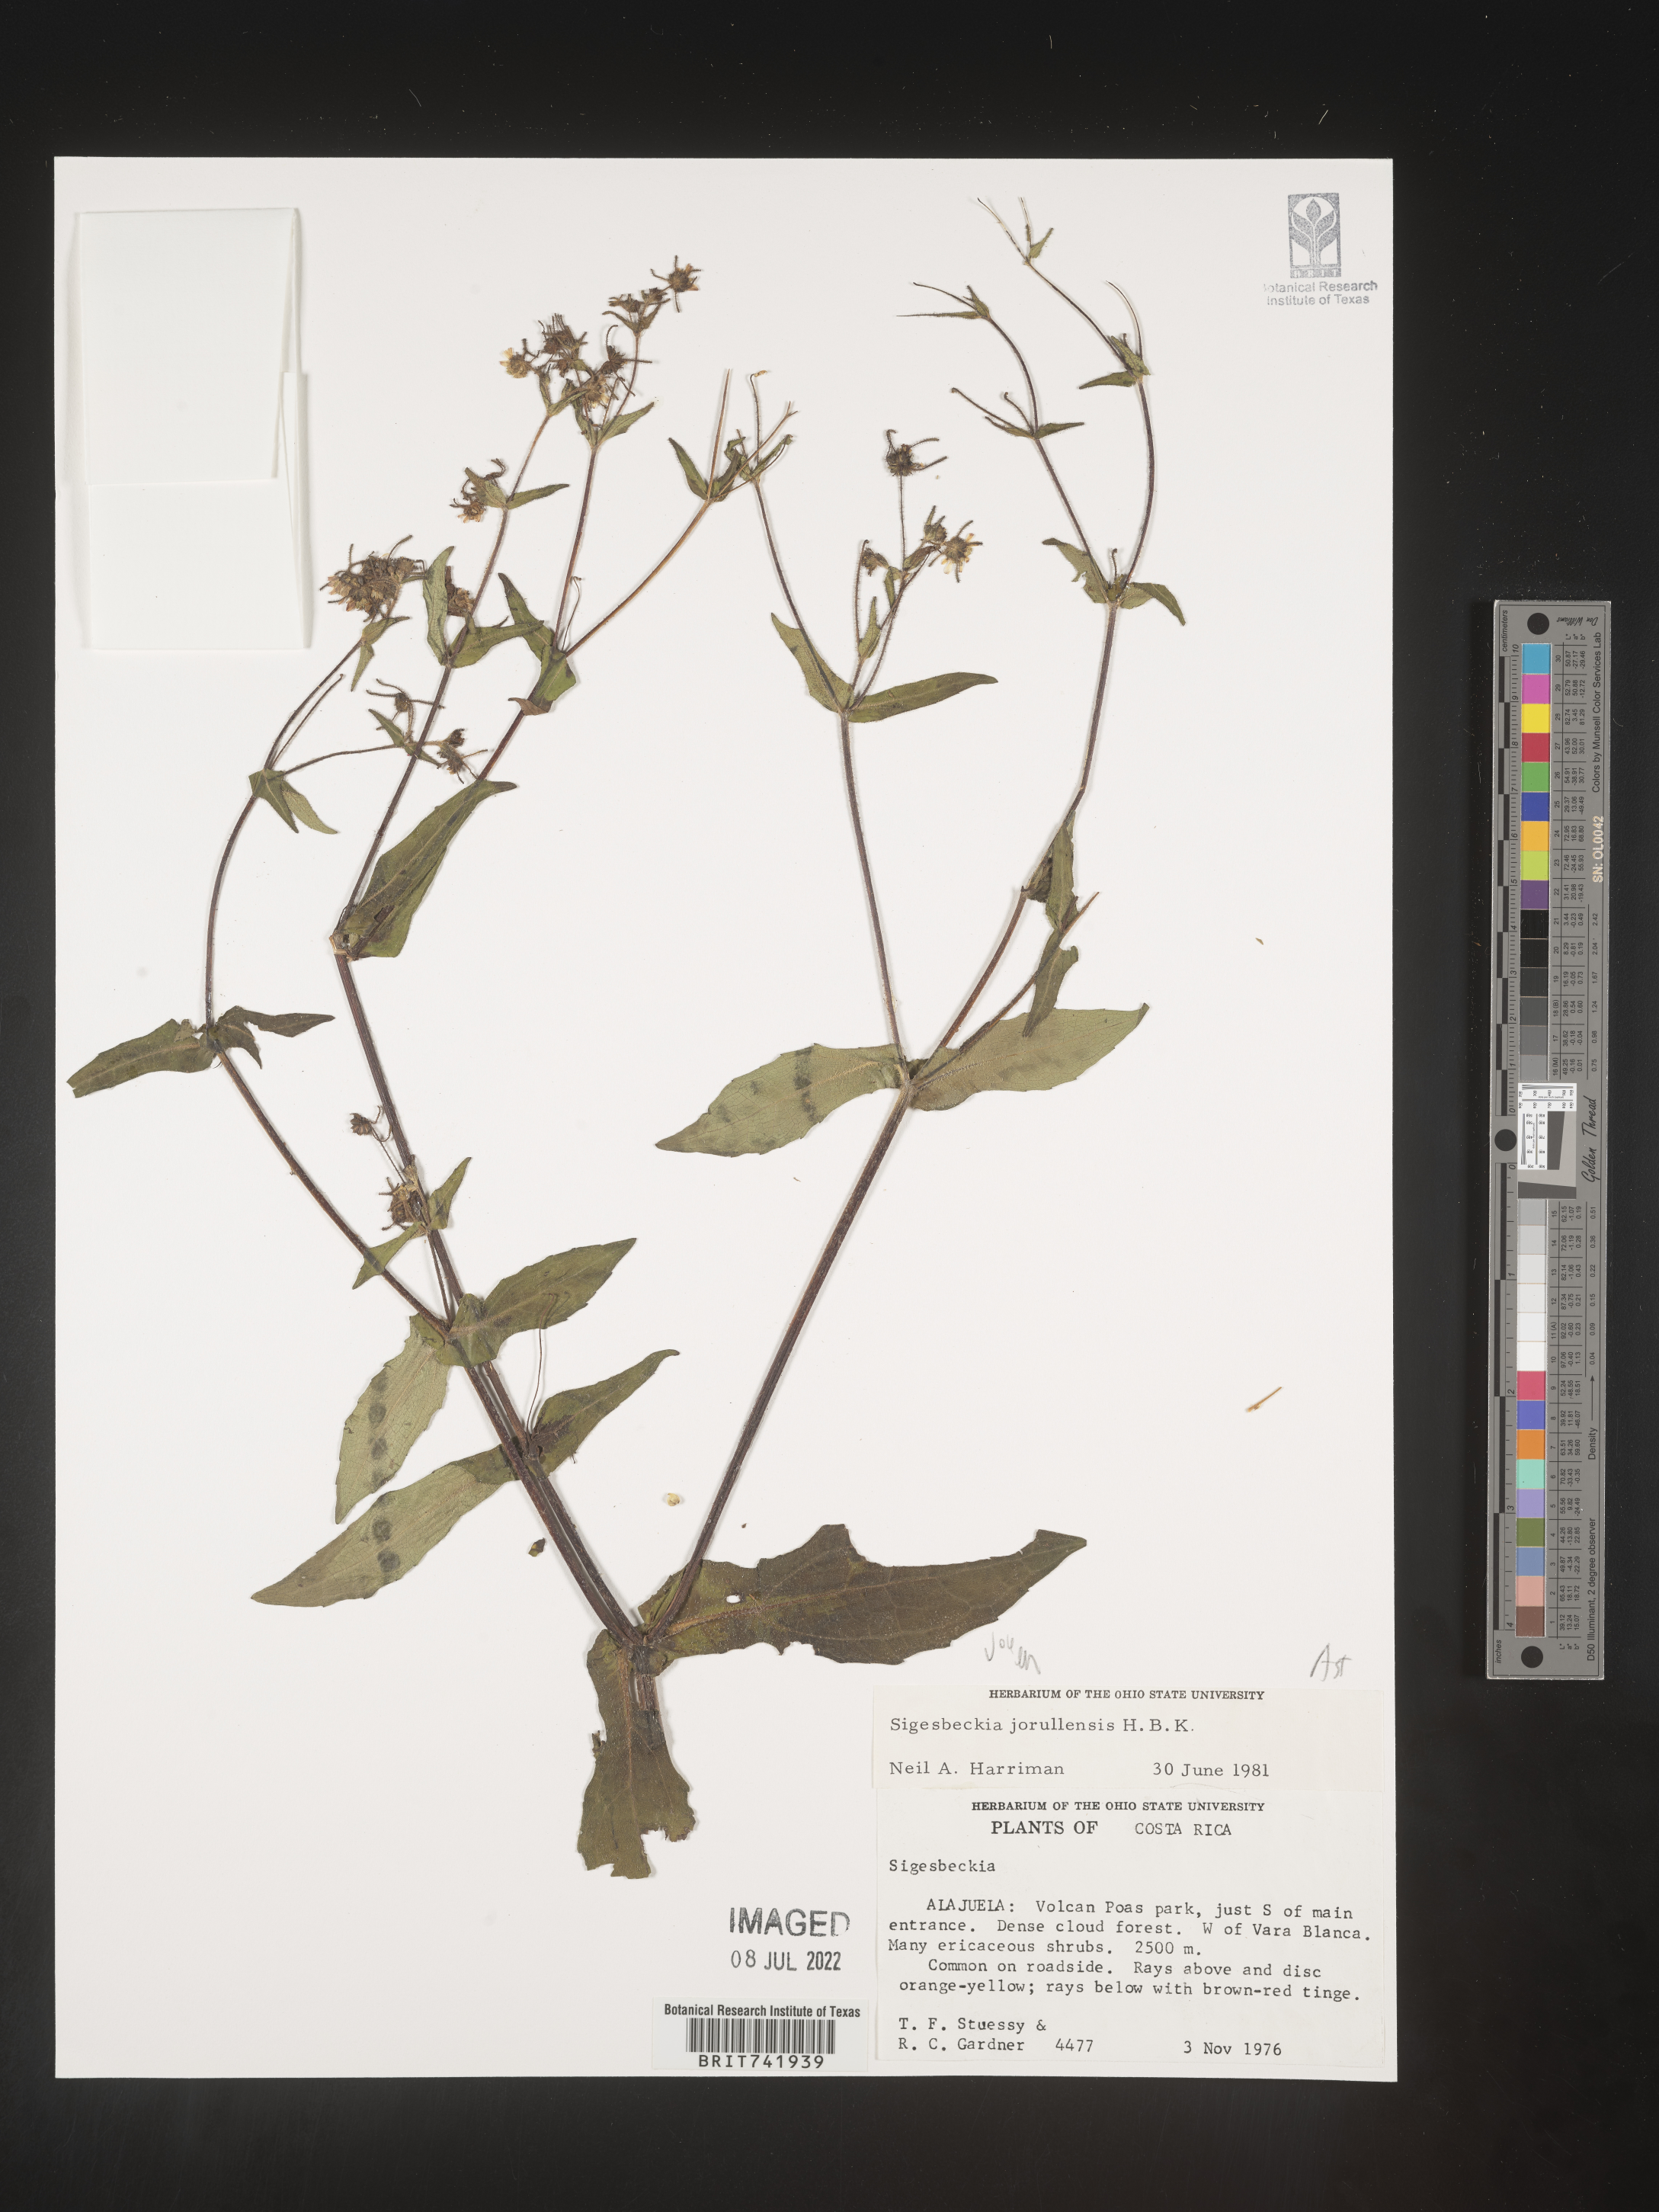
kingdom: Plantae
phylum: Tracheophyta
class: Magnoliopsida
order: Asterales
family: Asteraceae
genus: Sigesbeckia
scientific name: Sigesbeckia
